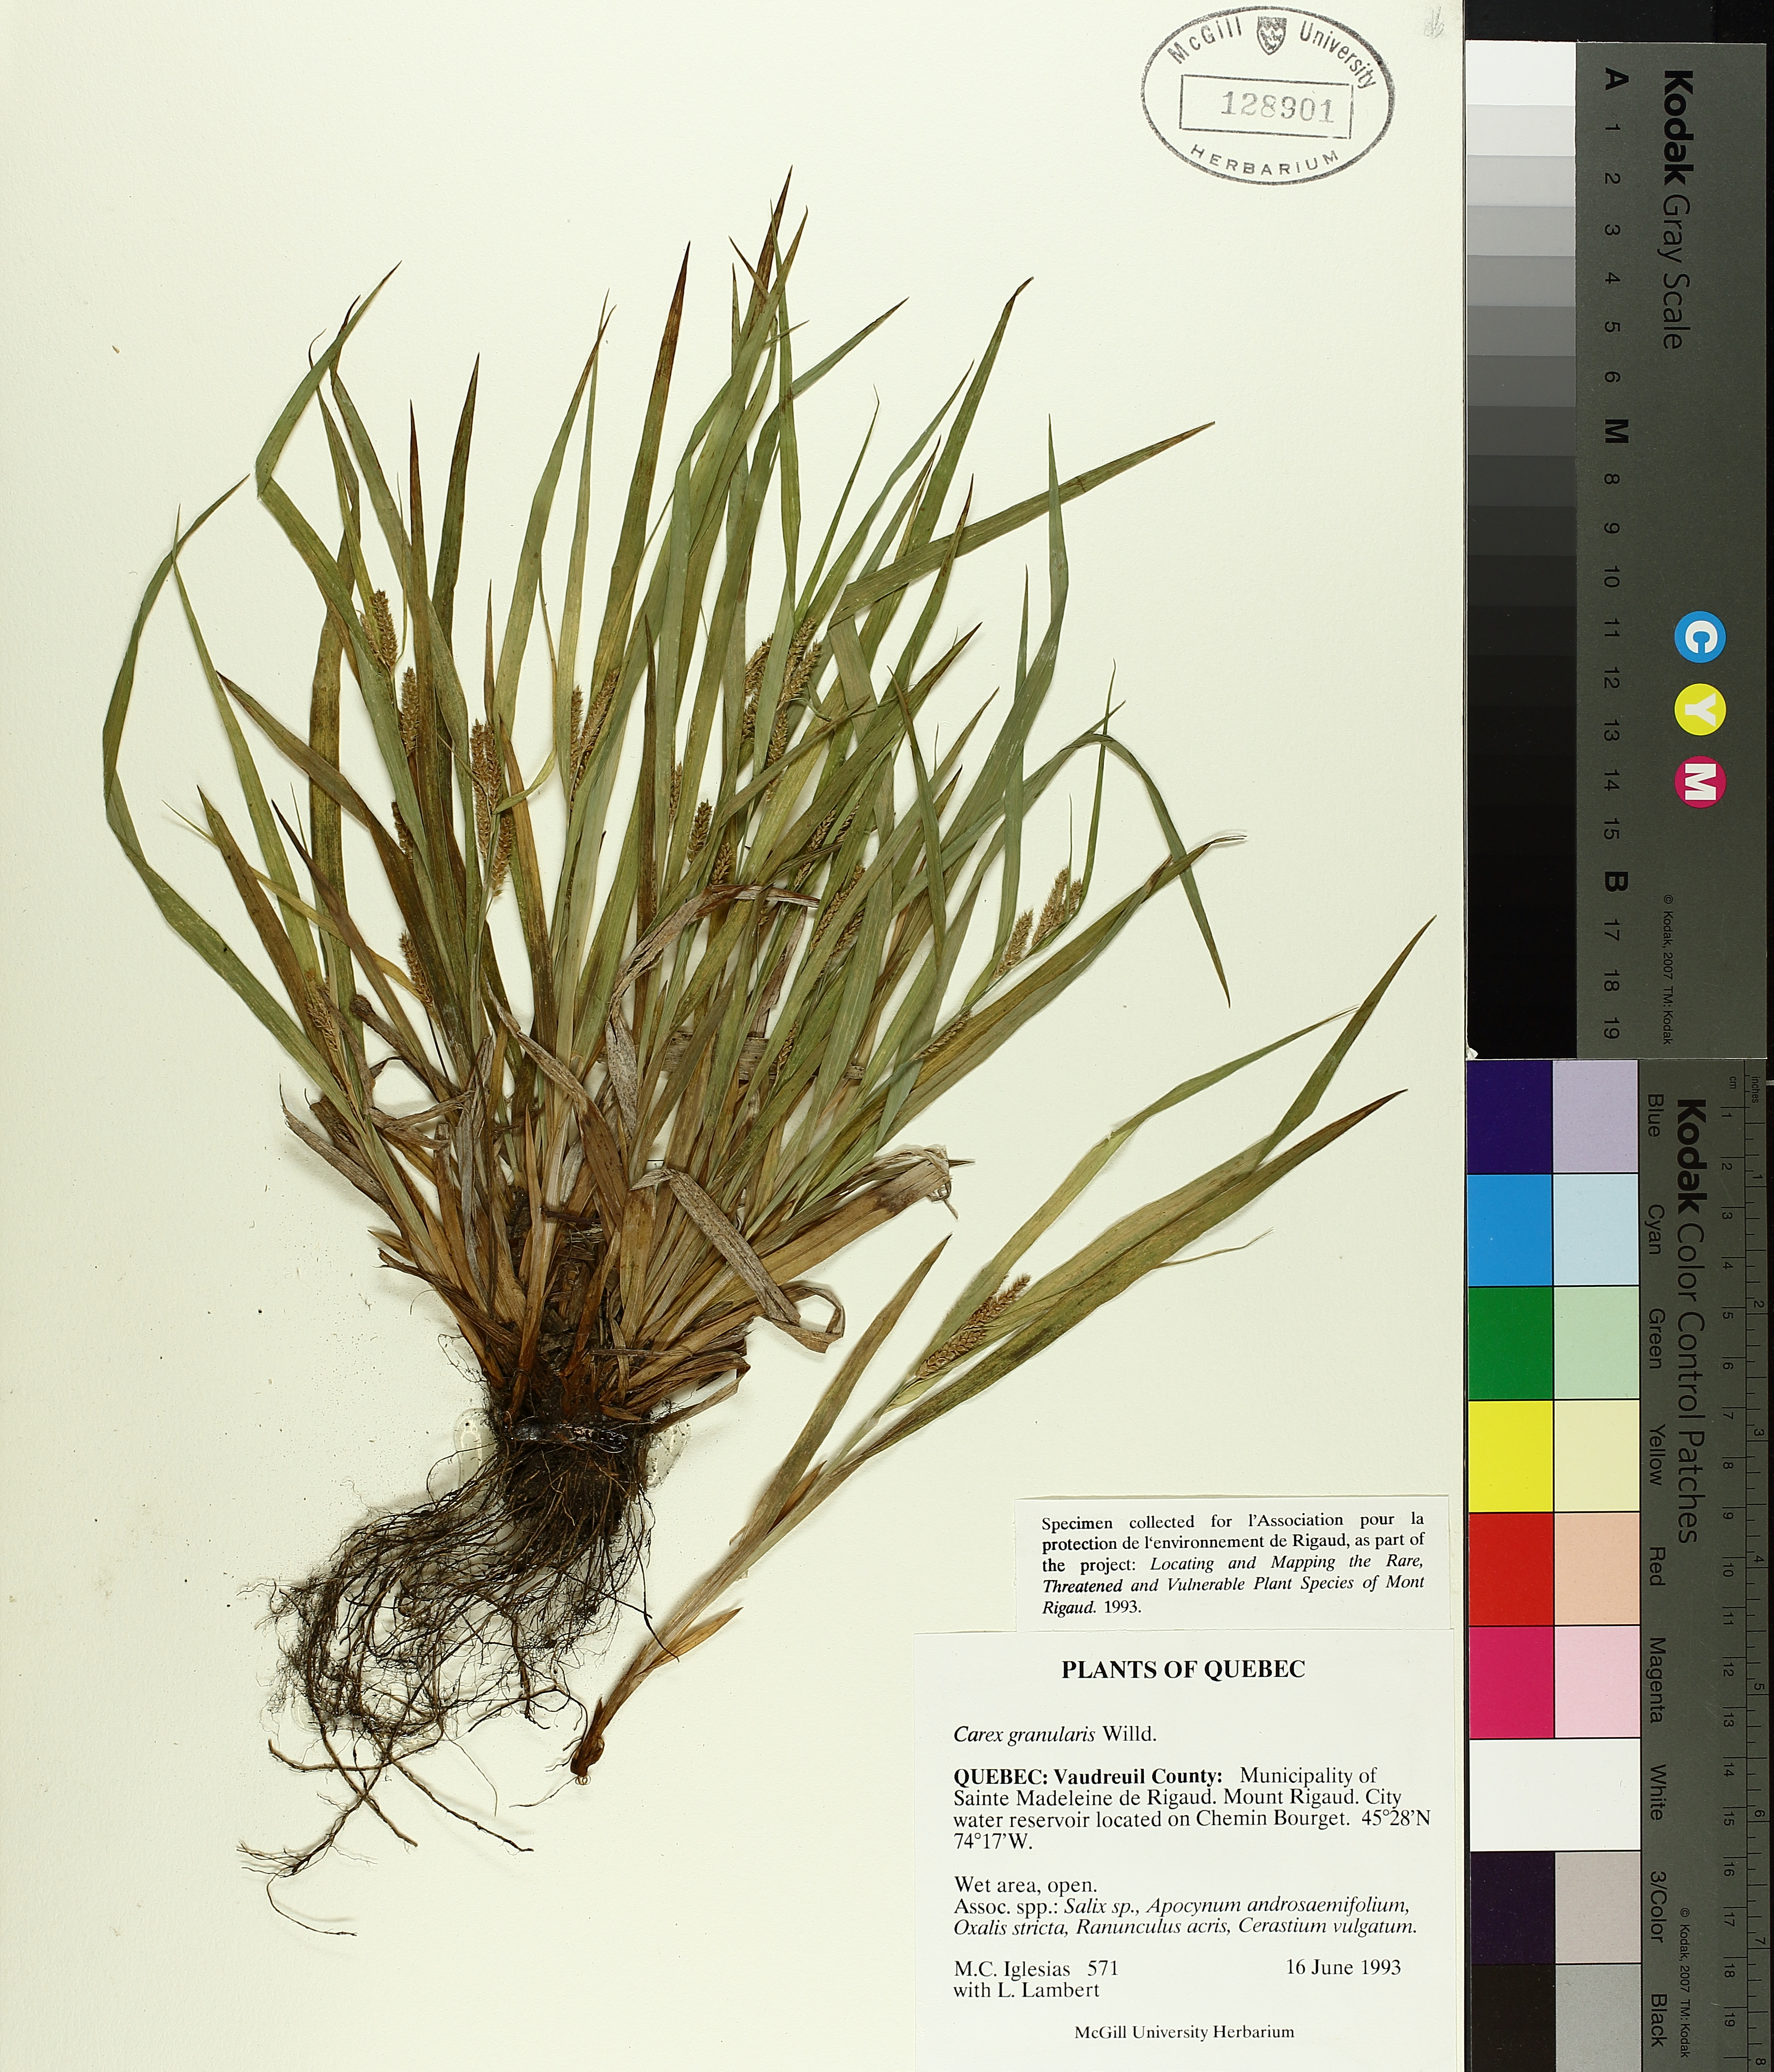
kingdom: Plantae
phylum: Tracheophyta
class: Liliopsida
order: Poales
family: Cyperaceae
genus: Carex
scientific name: Carex granularis
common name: Granular sedge
